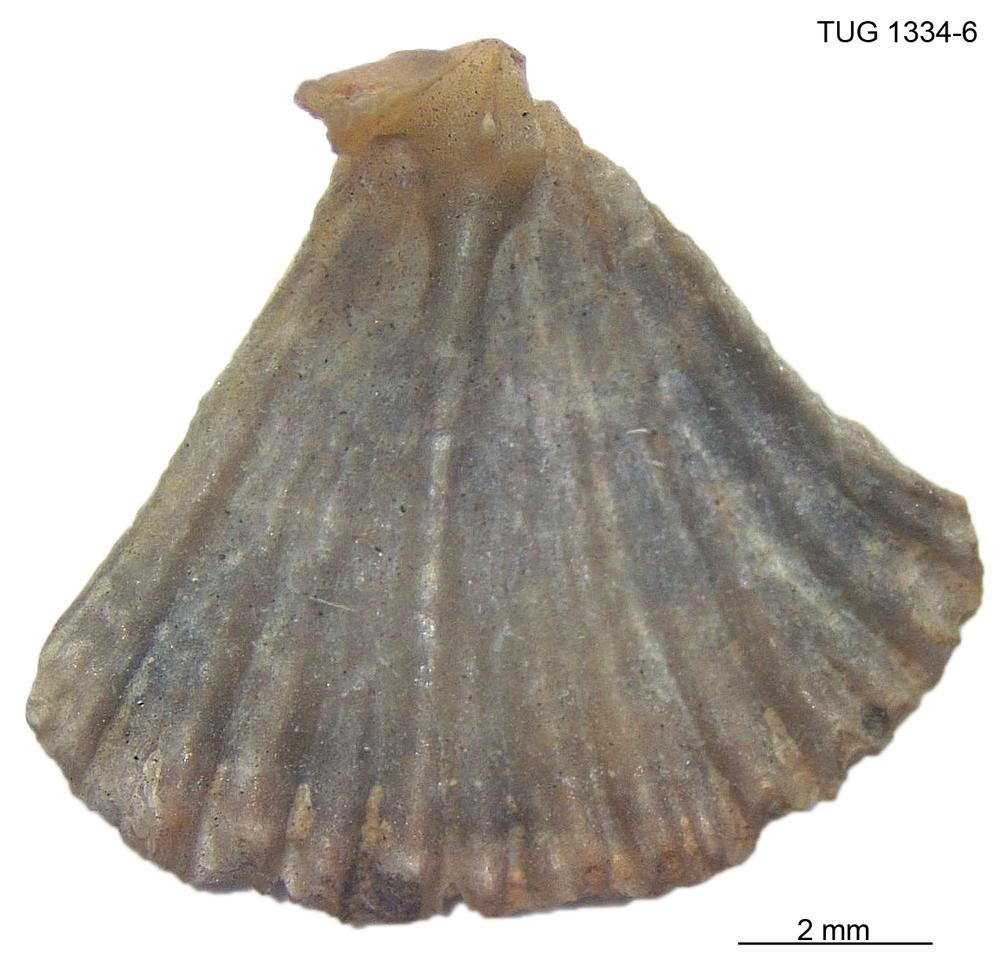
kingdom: Animalia
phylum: Brachiopoda
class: Rhynchonellata
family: Dolerorthidae
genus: Glyptorthis
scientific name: Glyptorthis plana
